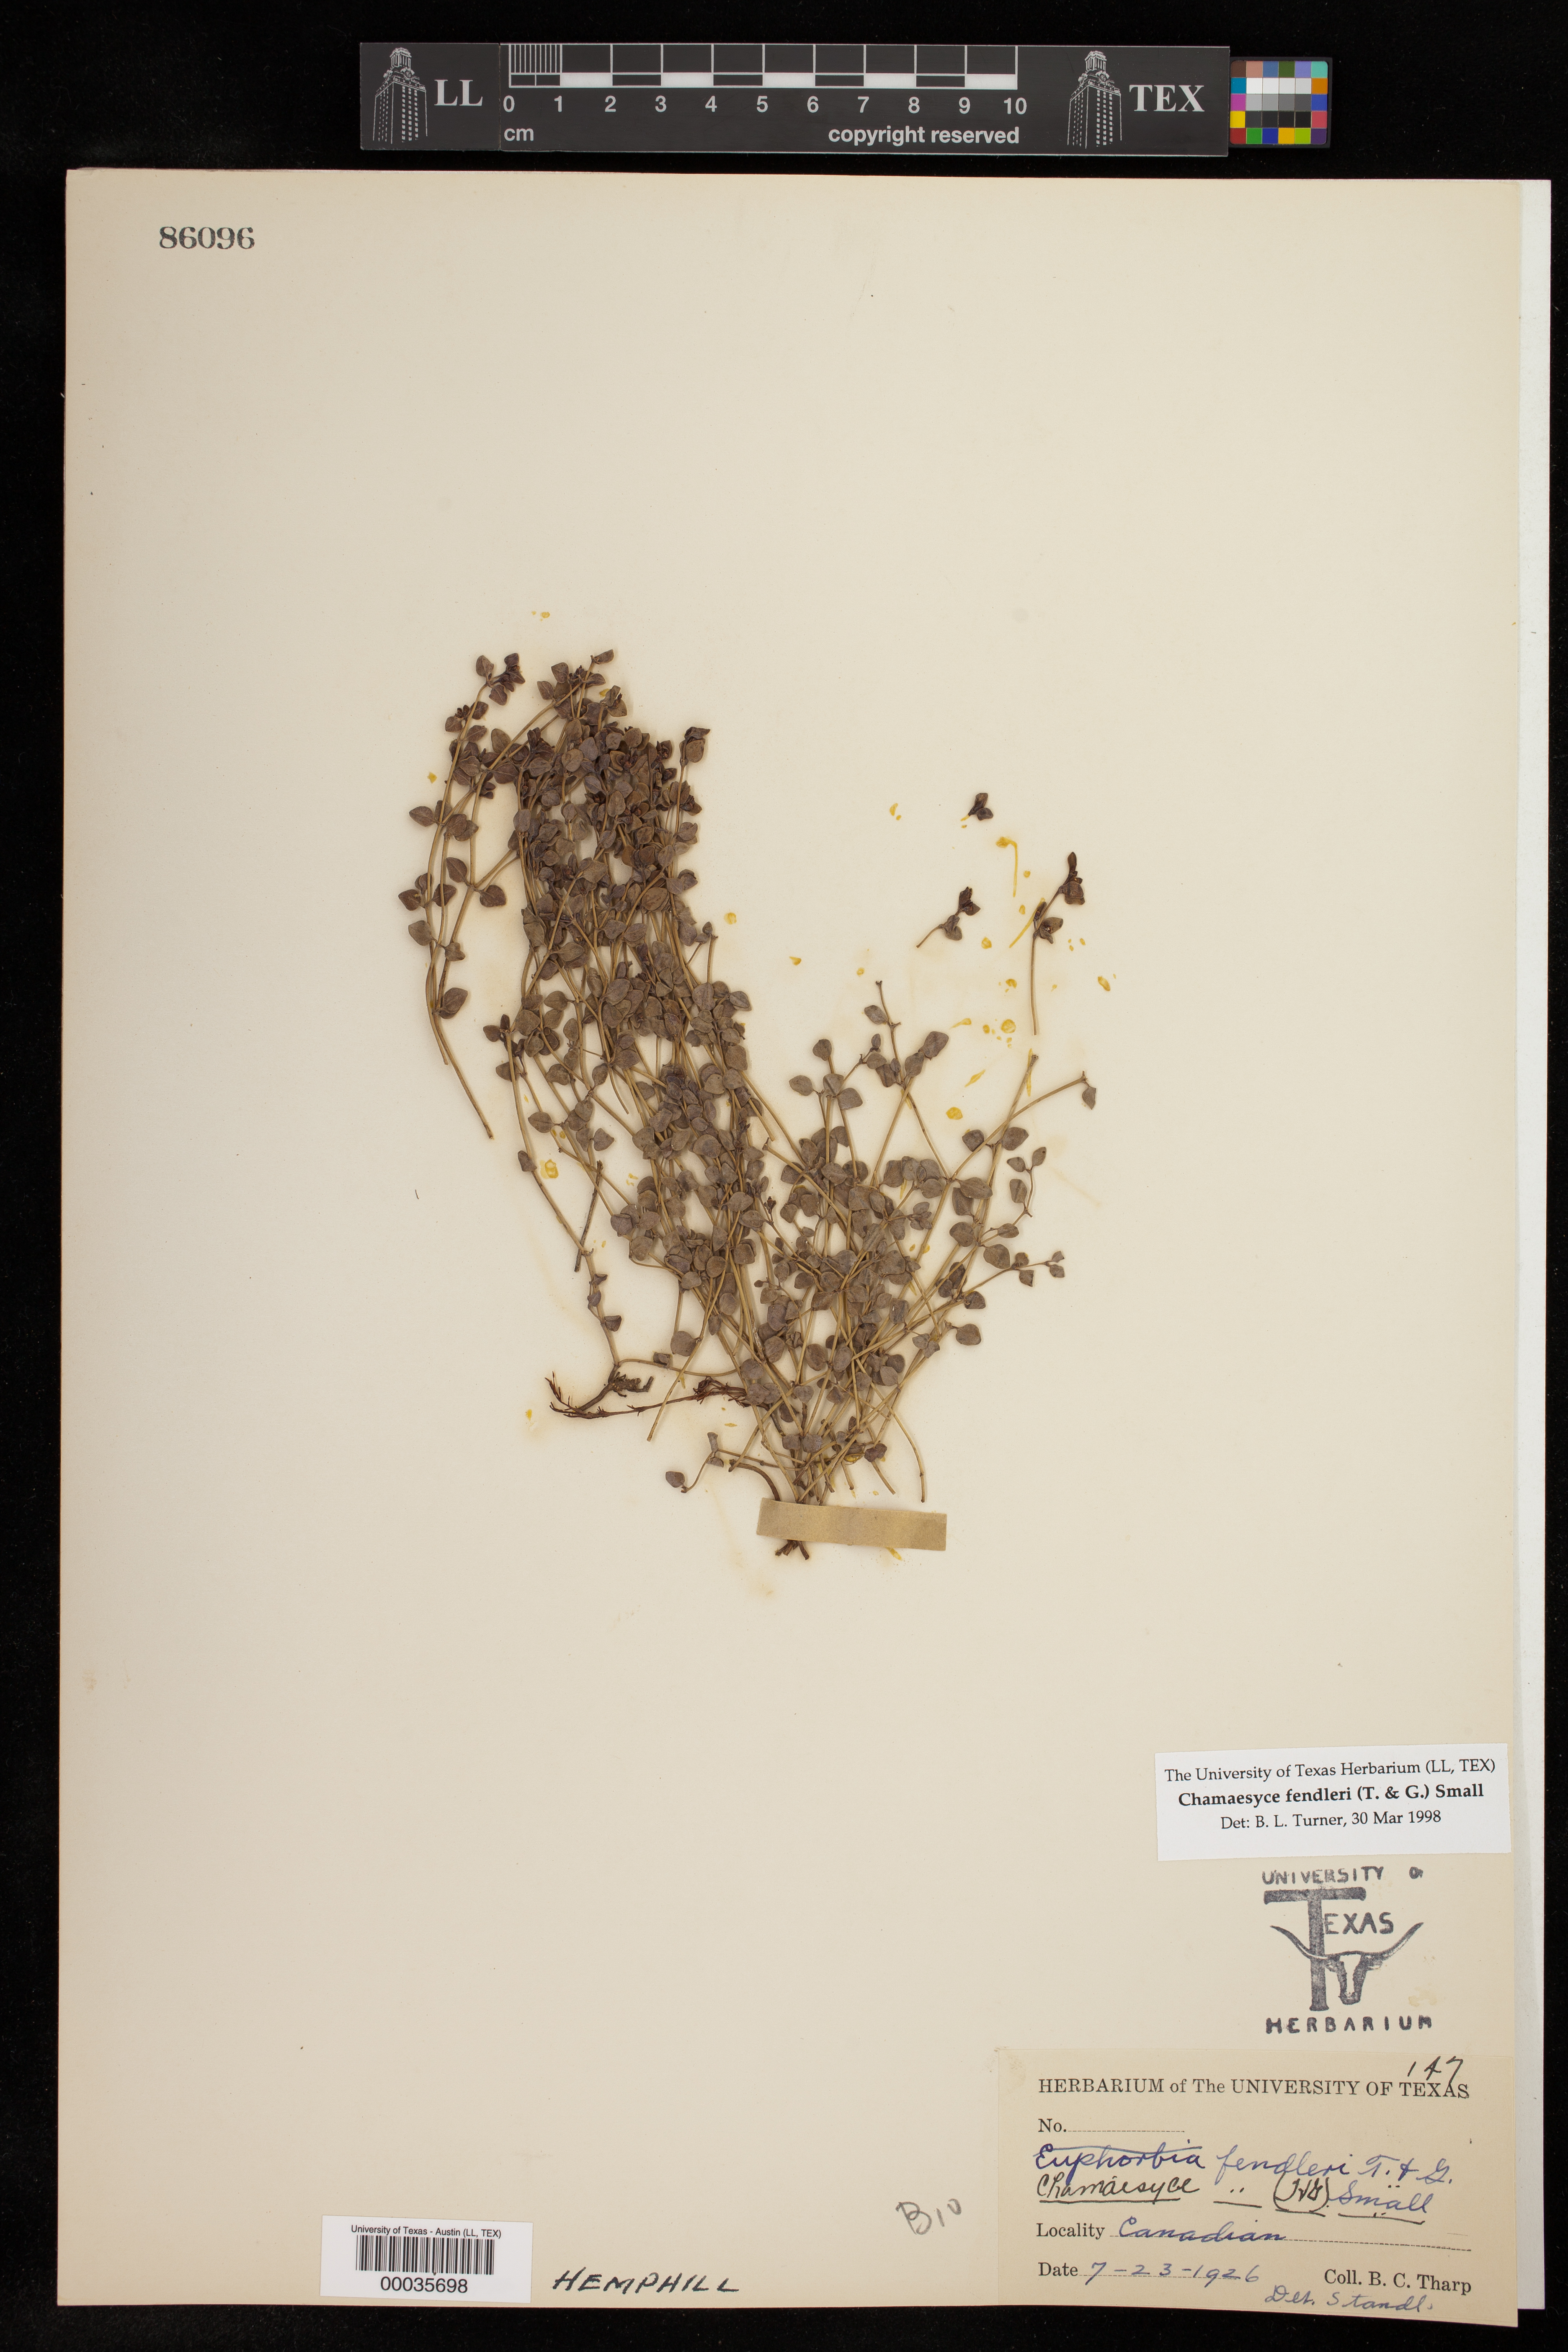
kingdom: Plantae
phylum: Tracheophyta
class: Magnoliopsida
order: Malpighiales
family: Euphorbiaceae
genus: Euphorbia
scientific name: Euphorbia fendleri
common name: Fendler's euphorbia
